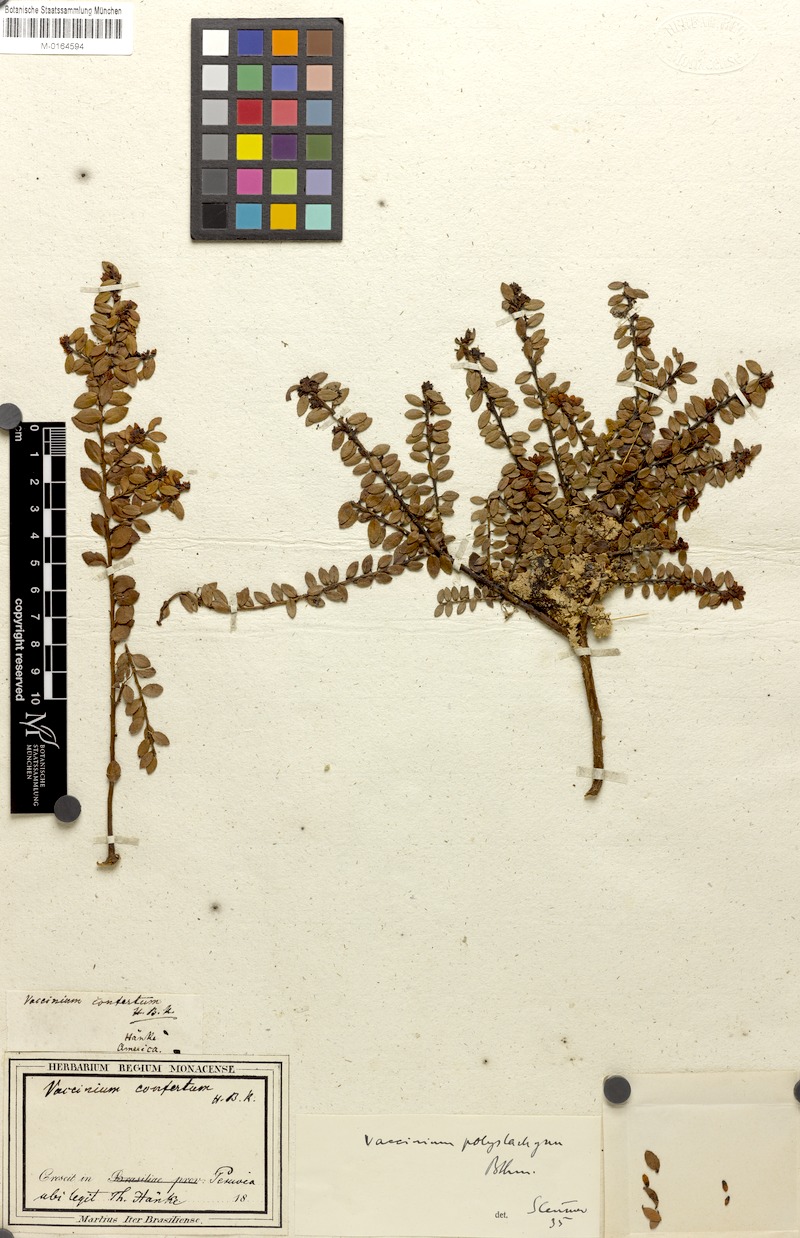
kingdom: Plantae
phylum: Tracheophyta
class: Magnoliopsida
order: Ericales
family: Ericaceae
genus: Vaccinium
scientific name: Vaccinium floribundum
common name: Colombian blueberry
